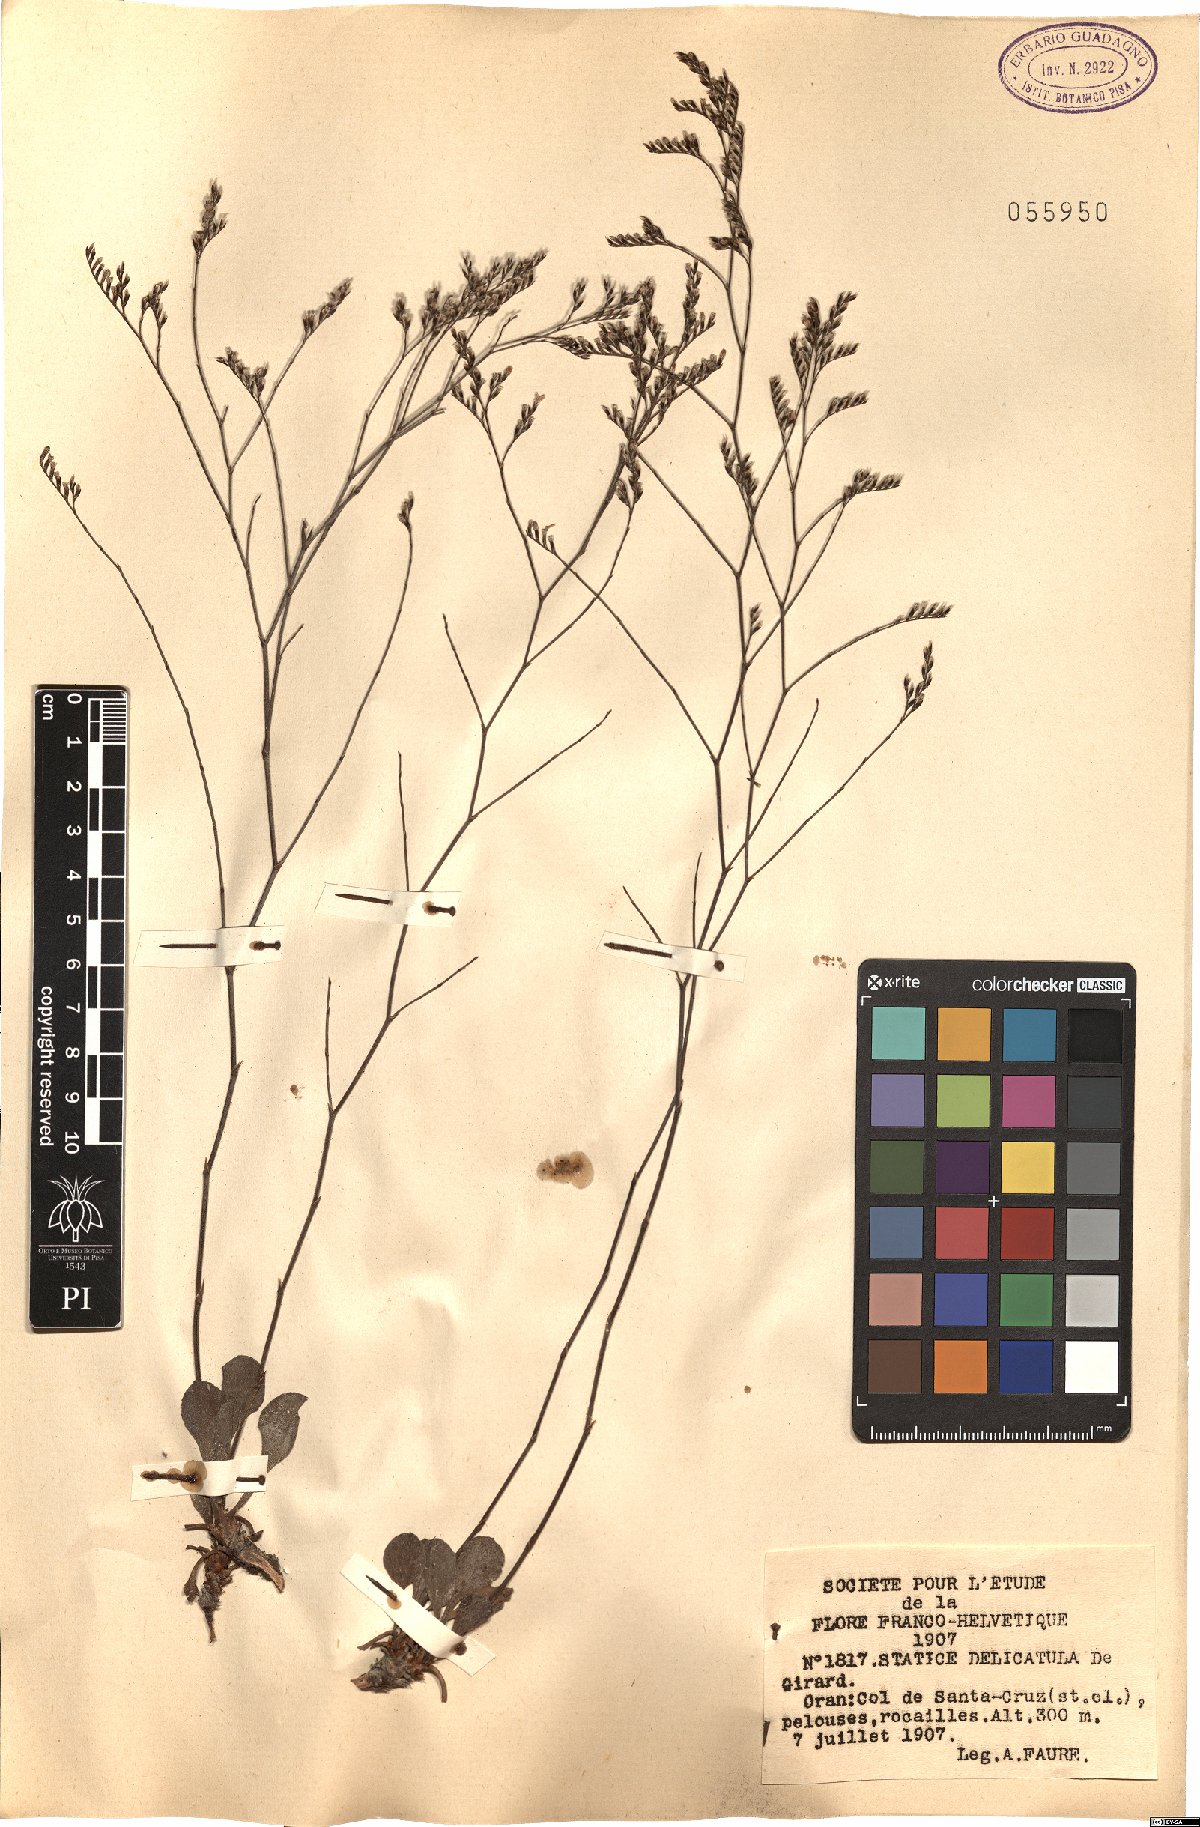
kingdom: Plantae
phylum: Tracheophyta
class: Magnoliopsida
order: Caryophyllales
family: Plumbaginaceae
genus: Limonium
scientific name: Limonium delicatulum
